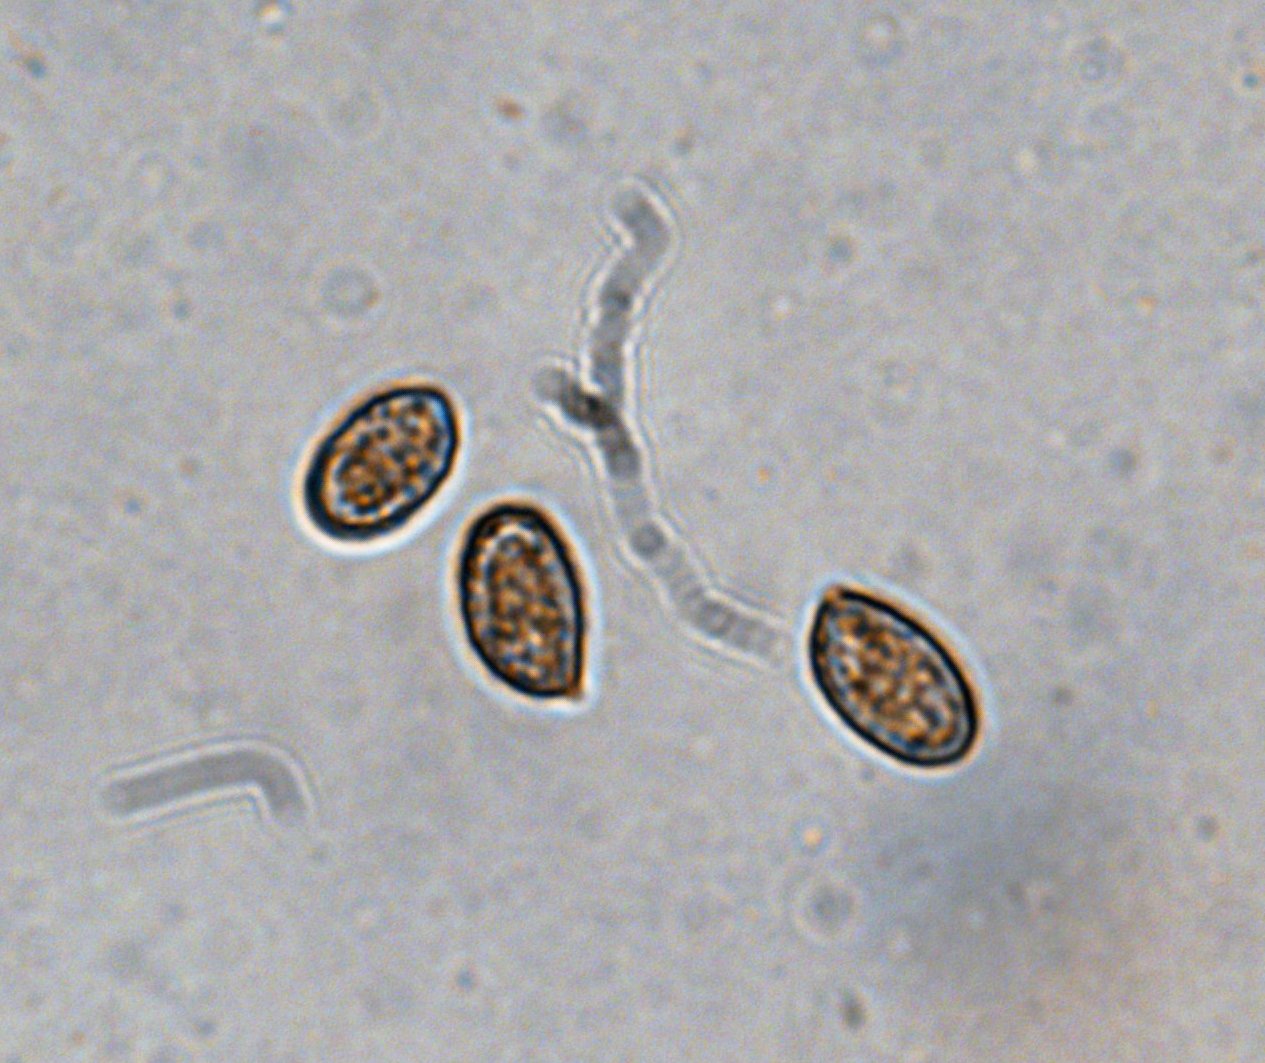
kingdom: Fungi
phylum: Basidiomycota
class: Agaricomycetes
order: Agaricales
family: Cortinariaceae
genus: Cortinarius
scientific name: Cortinarius saturninus
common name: brunviolet slørhat
